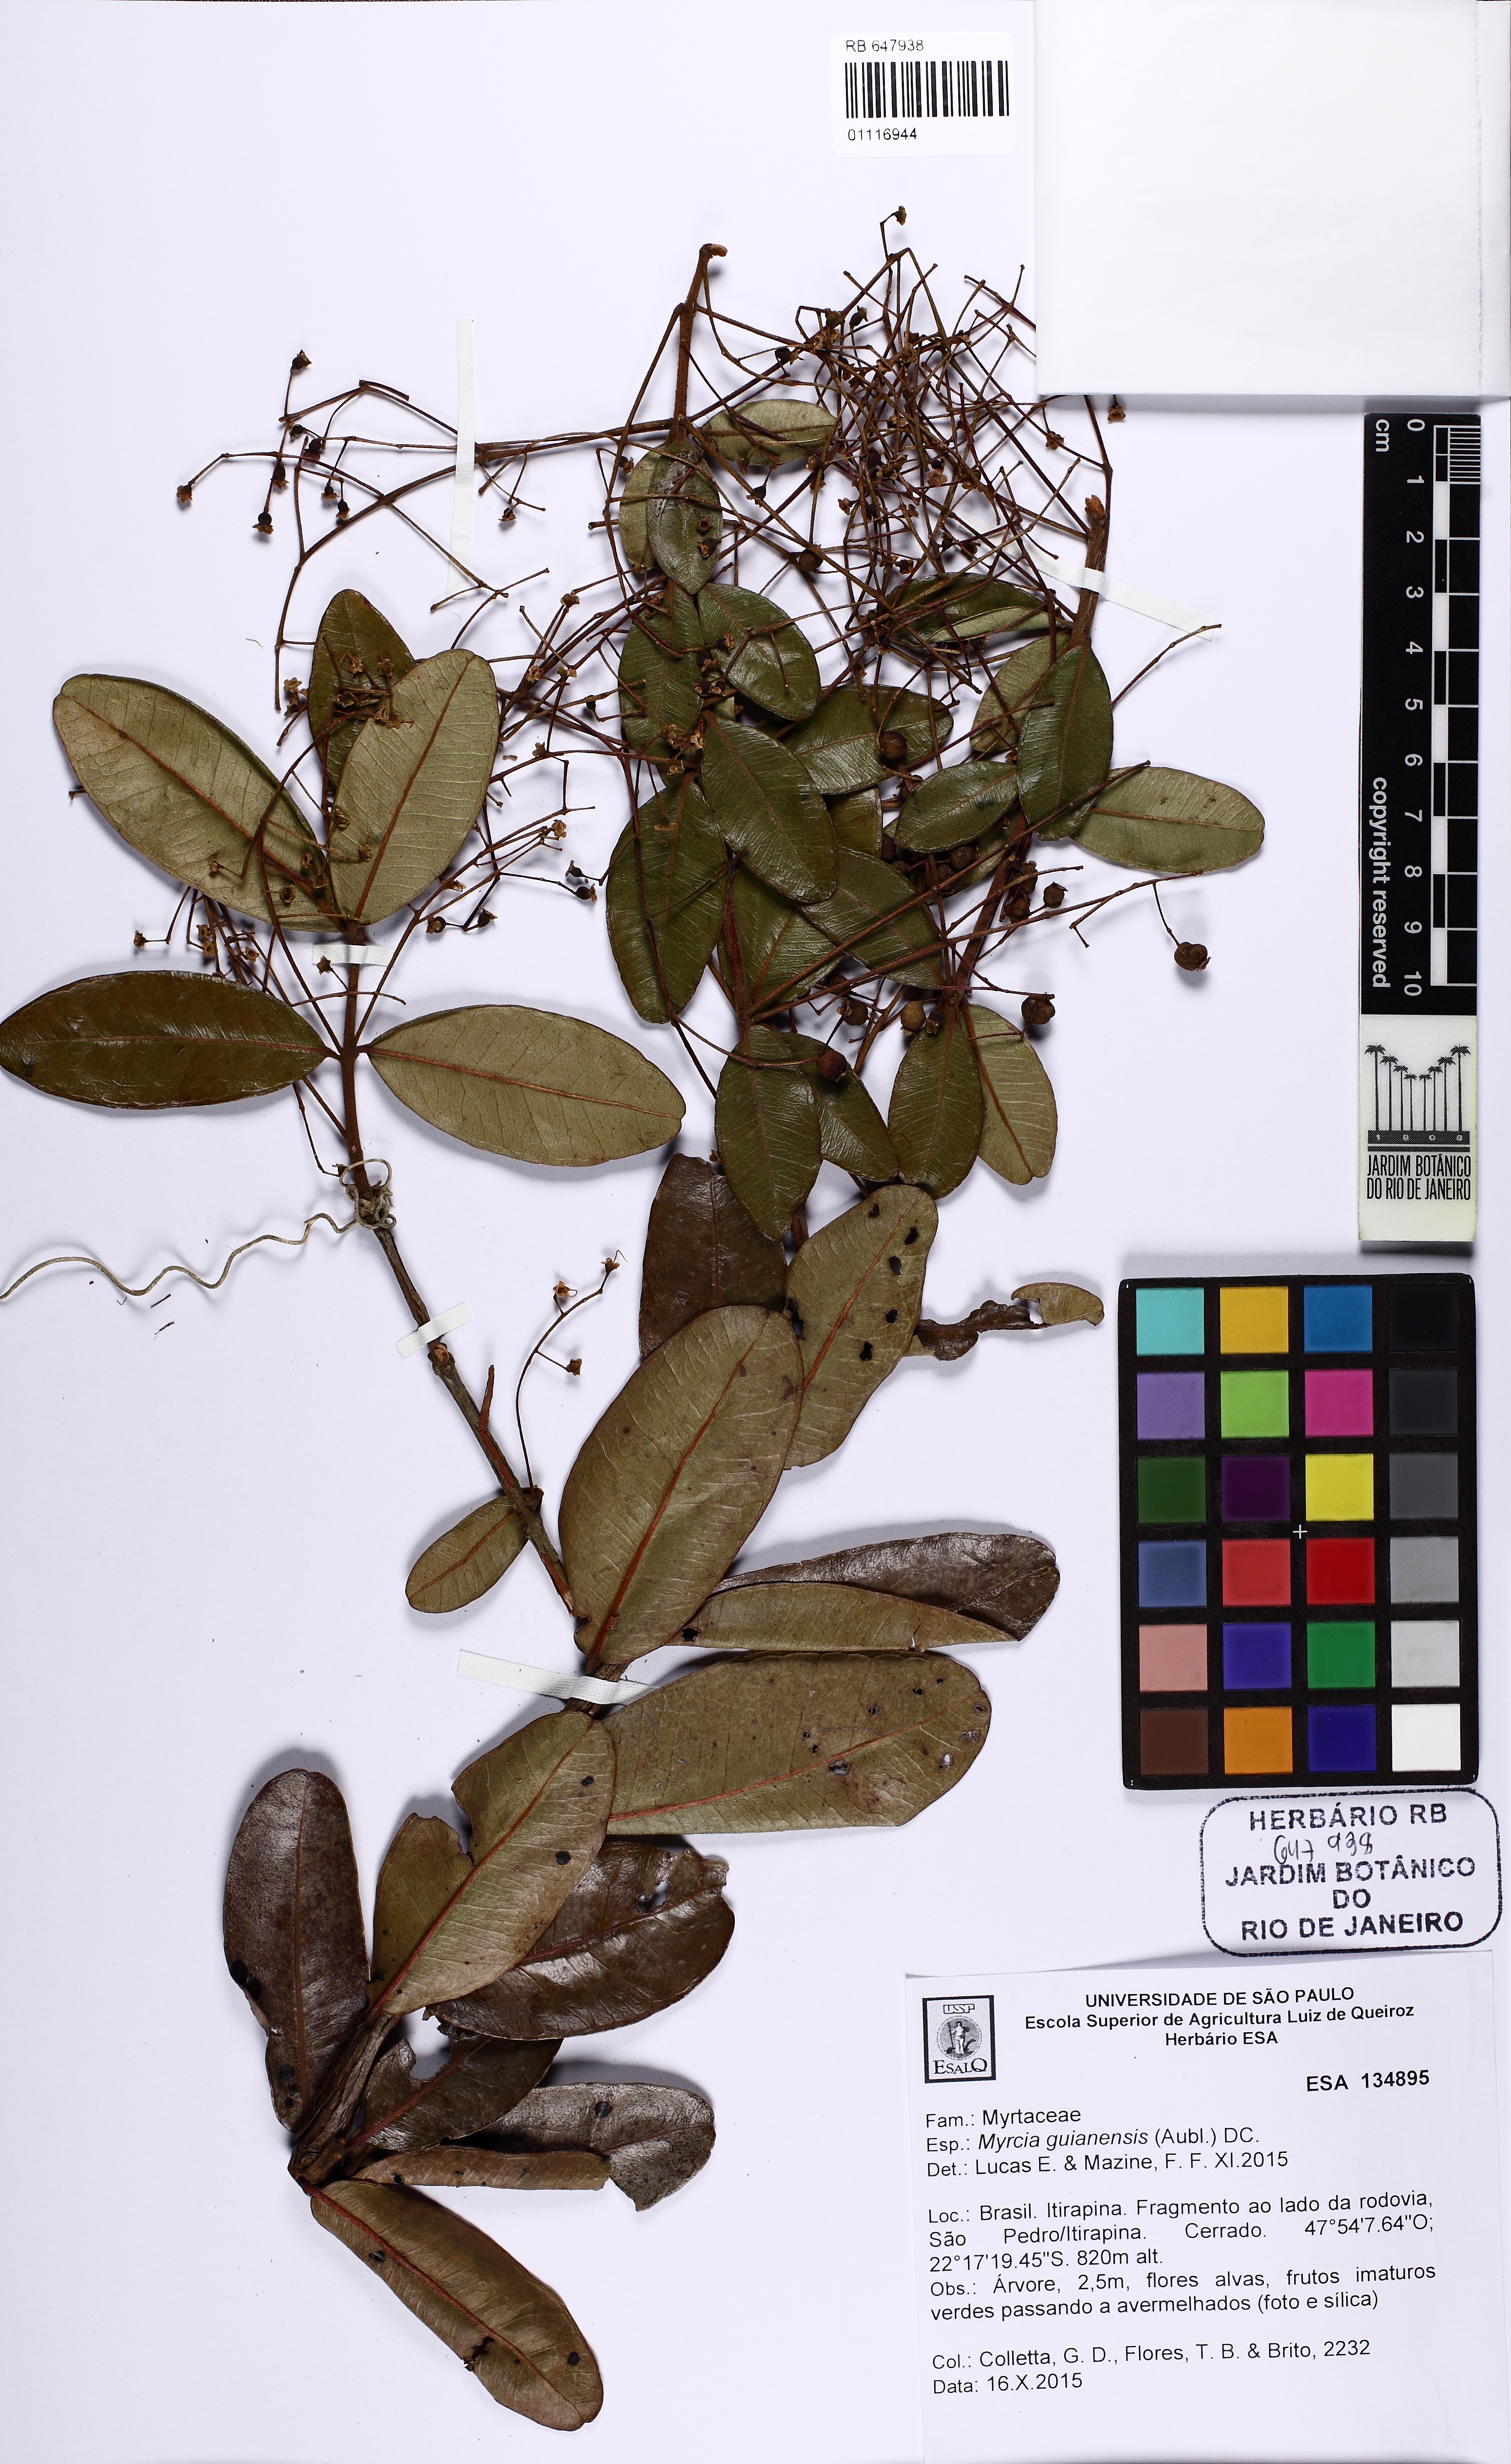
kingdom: Plantae
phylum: Tracheophyta
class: Magnoliopsida
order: Myrtales
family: Myrtaceae
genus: Myrcia
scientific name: Myrcia guianensis
